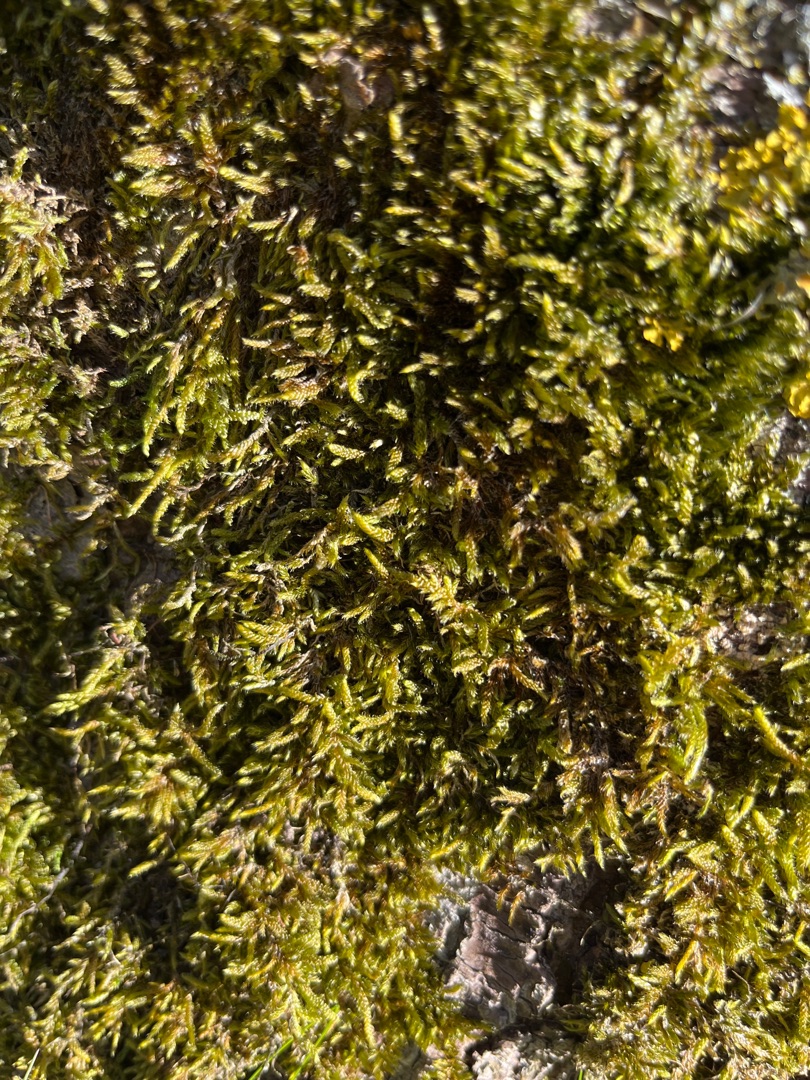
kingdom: Plantae
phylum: Bryophyta
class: Bryopsida
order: Hypnales
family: Hypnaceae
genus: Hypnum
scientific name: Hypnum cupressiforme
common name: Almindelig cypresmos
